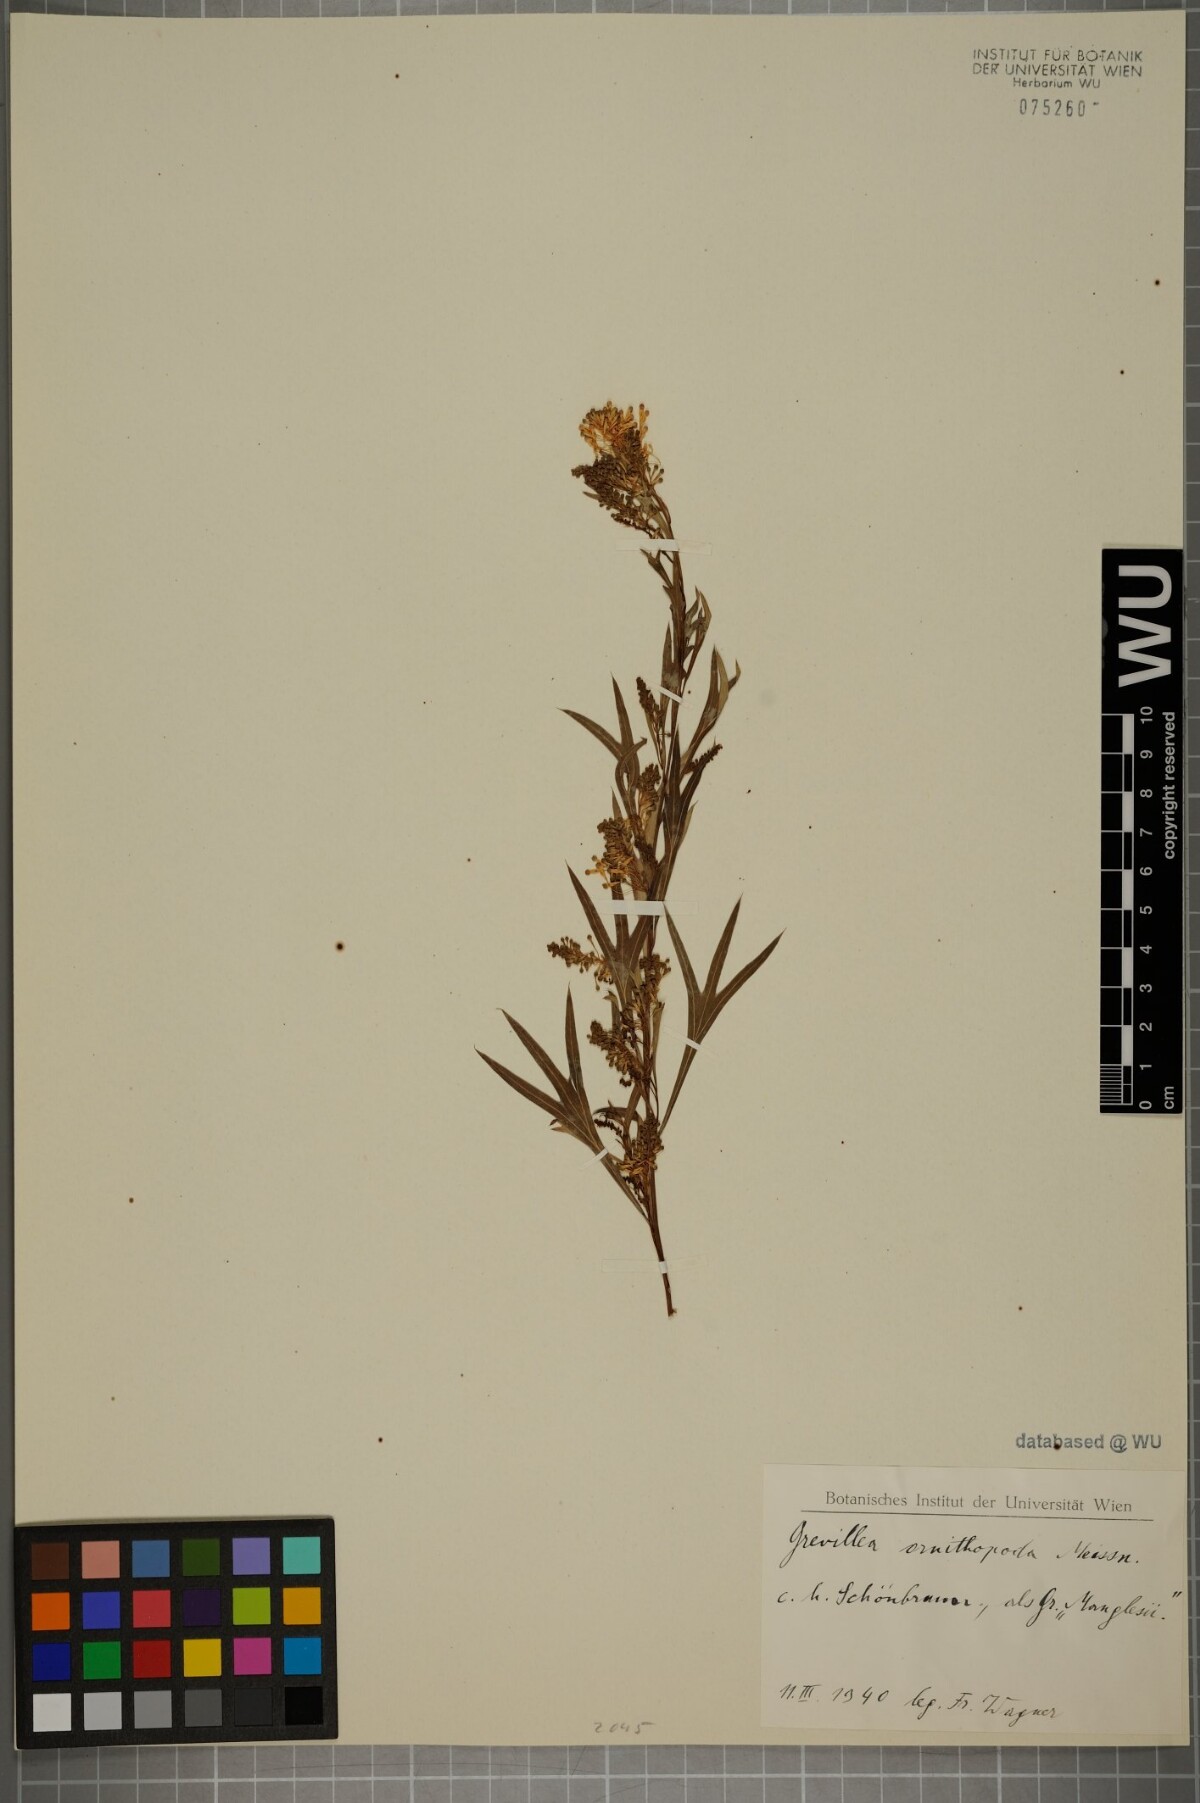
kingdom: Plantae
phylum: Tracheophyta
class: Magnoliopsida
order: Proteales
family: Proteaceae
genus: Grevillea
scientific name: Grevillea manglesii
